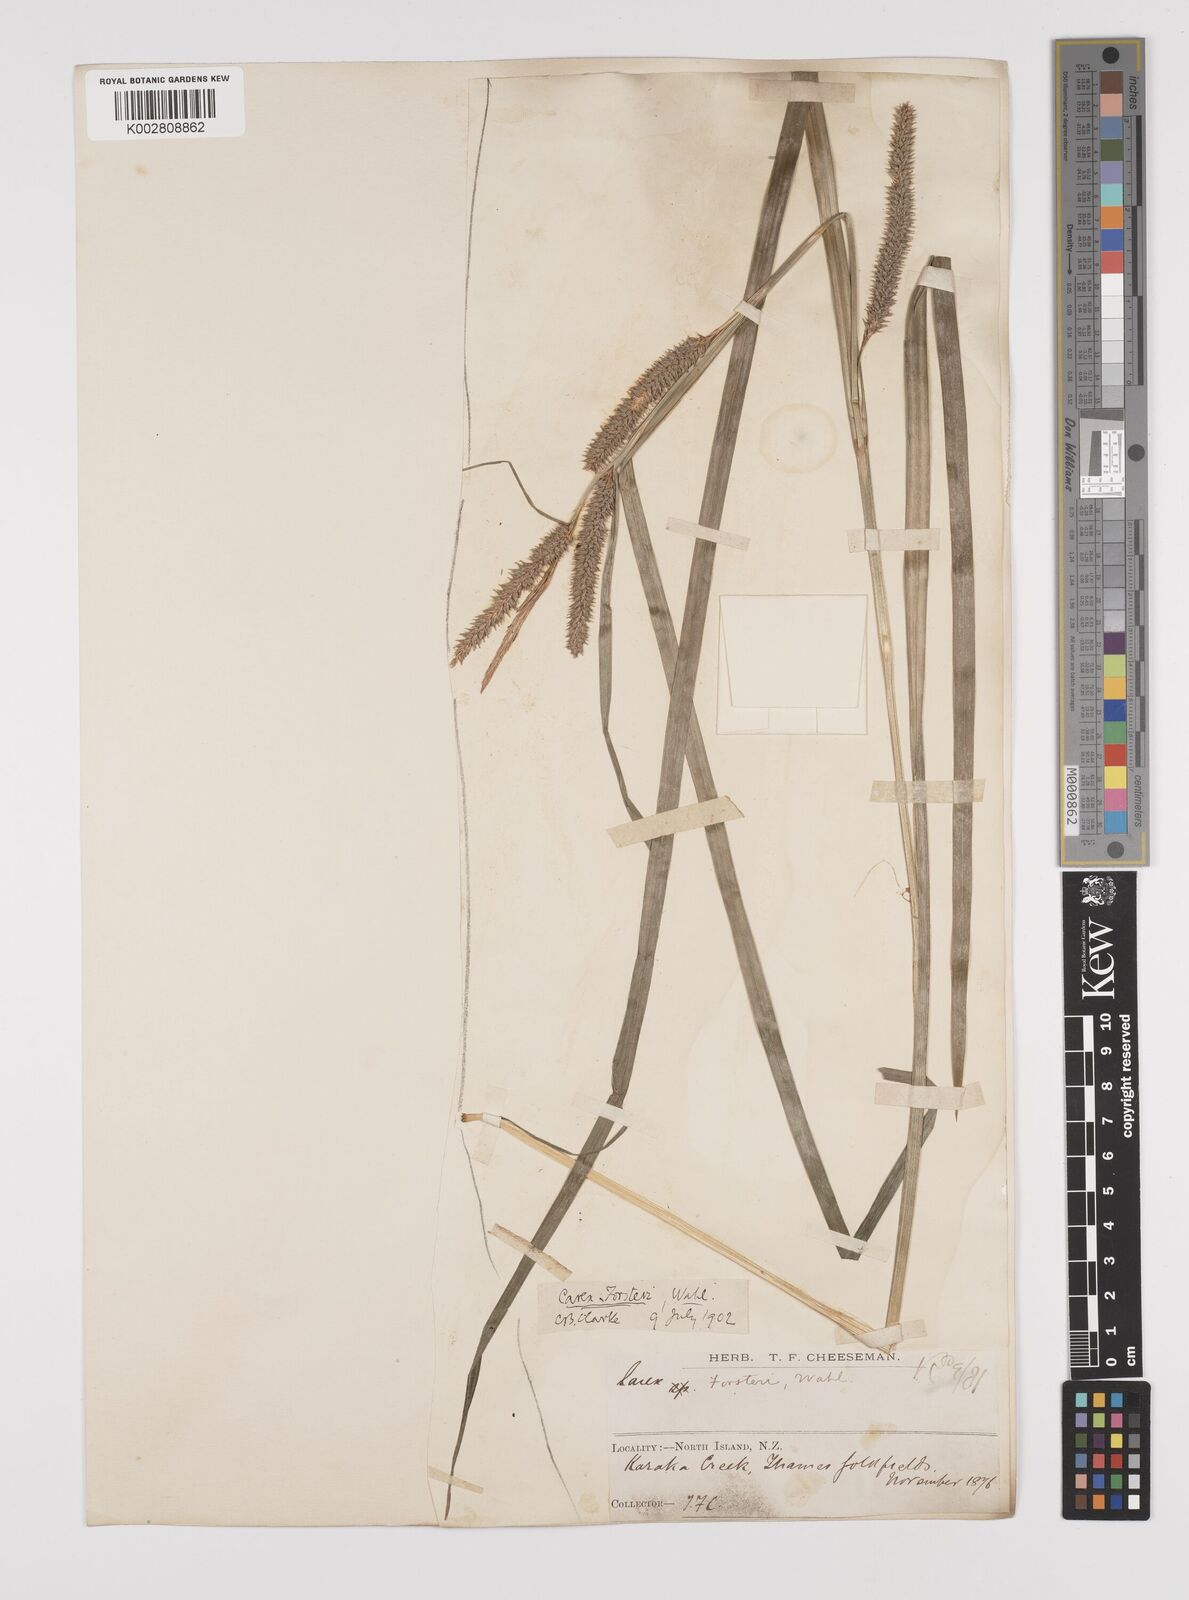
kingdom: Plantae
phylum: Tracheophyta
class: Liliopsida
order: Poales
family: Cyperaceae
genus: Carex
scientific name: Carex forsteri
